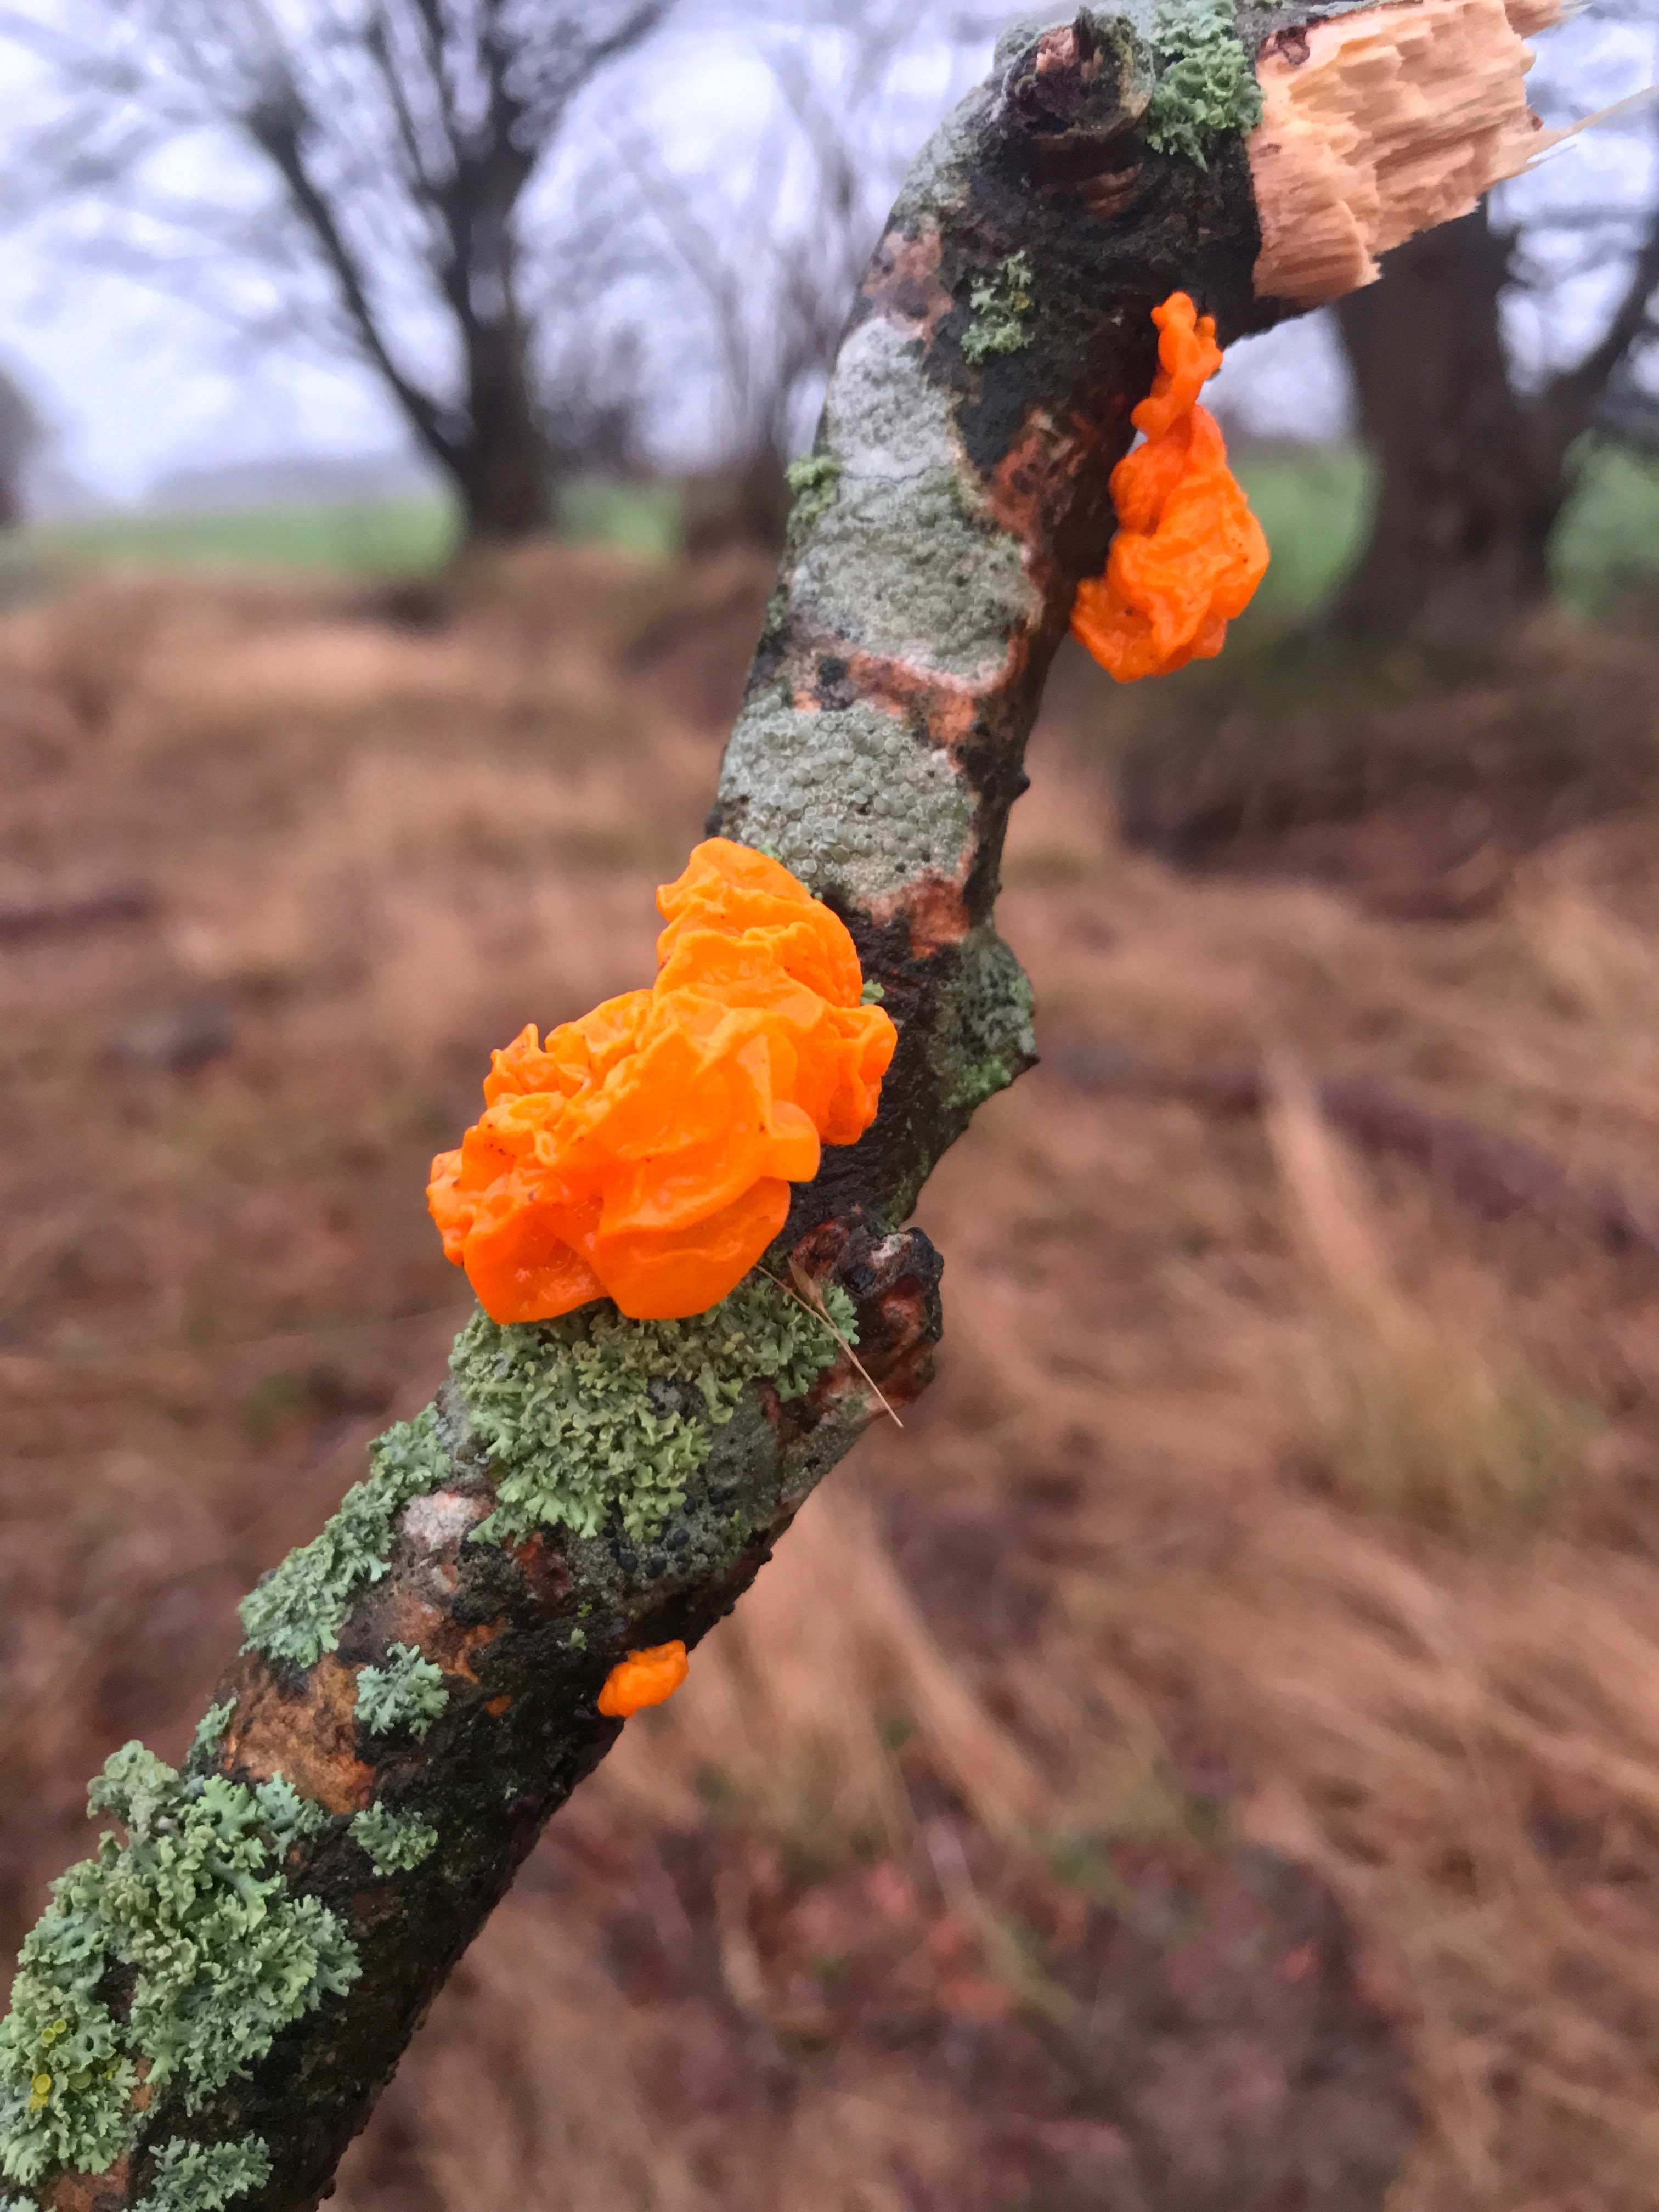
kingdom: Fungi
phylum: Basidiomycota
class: Tremellomycetes
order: Tremellales
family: Tremellaceae
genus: Tremella
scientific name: Tremella mesenterica
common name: gul bævresvamp
